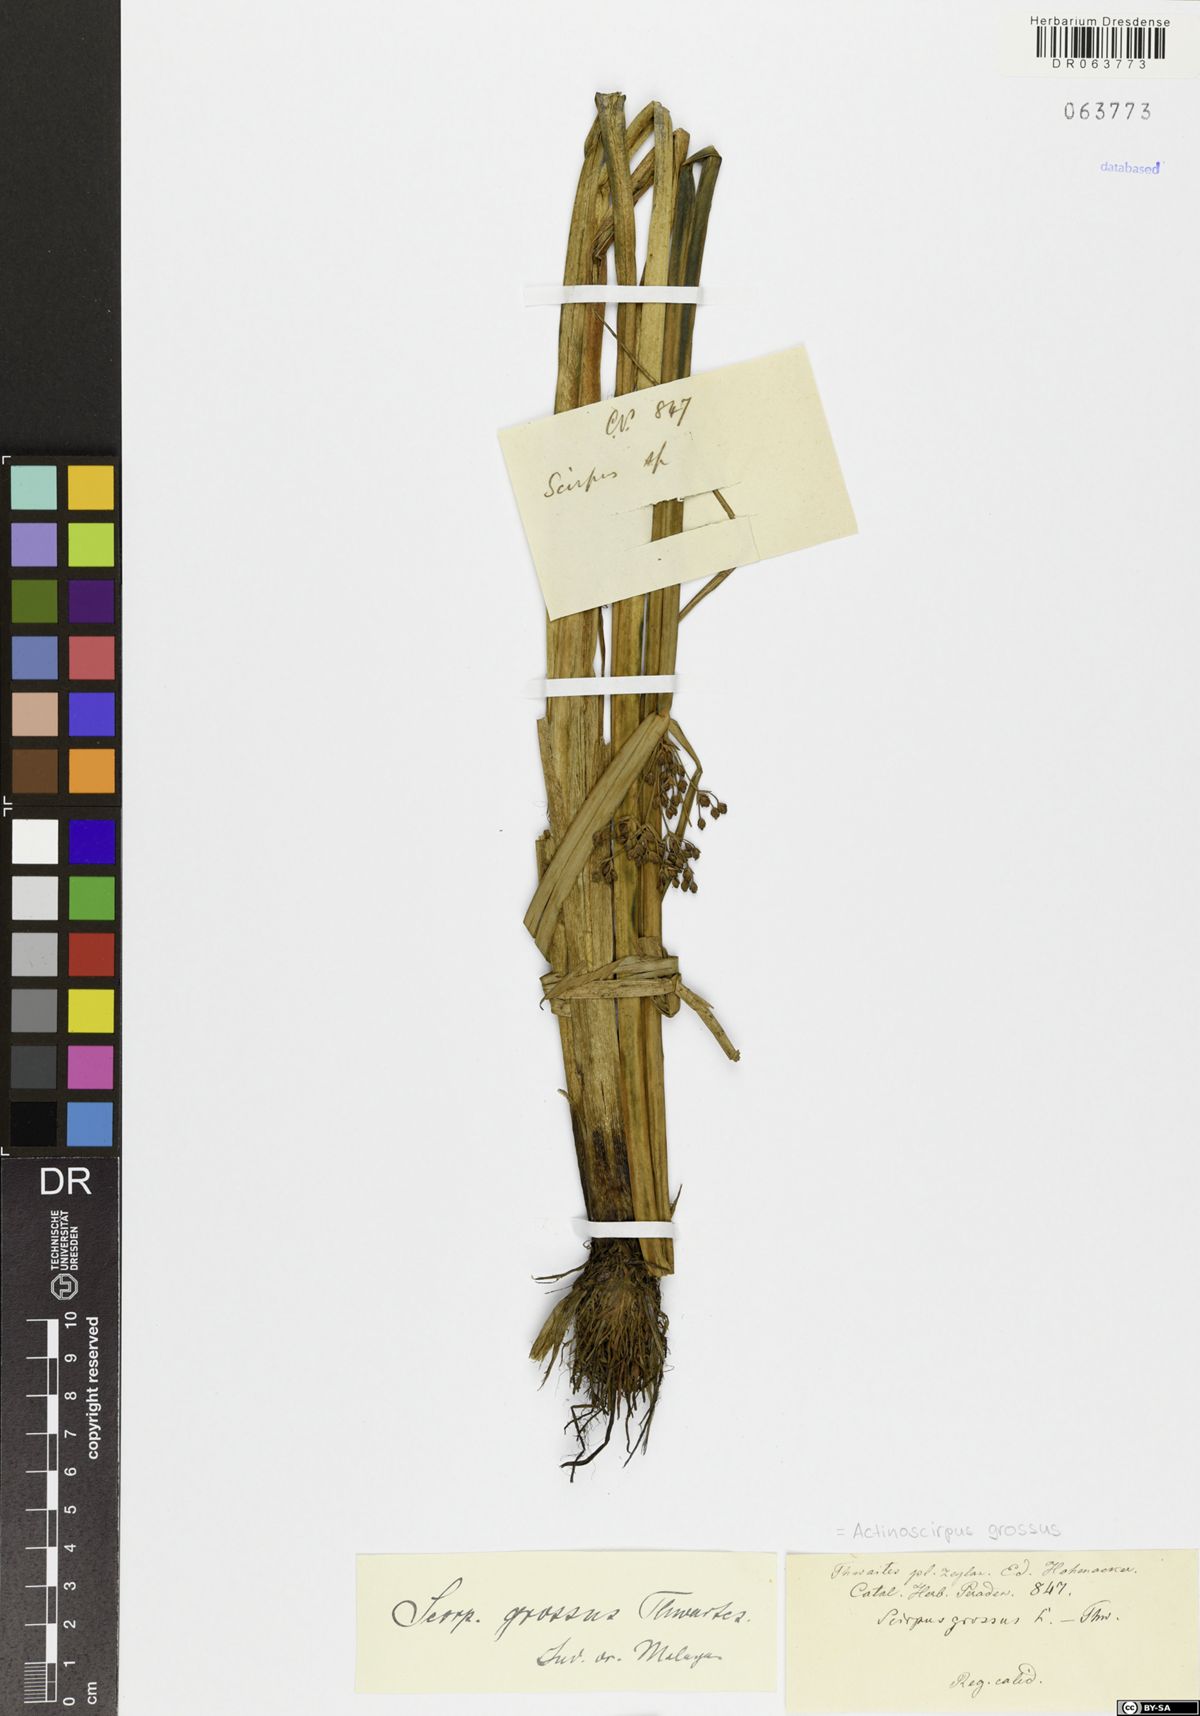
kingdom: Plantae
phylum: Tracheophyta
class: Liliopsida
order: Poales
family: Cyperaceae
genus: Actinoscirpus
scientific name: Actinoscirpus grossus
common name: Giant bur rush
